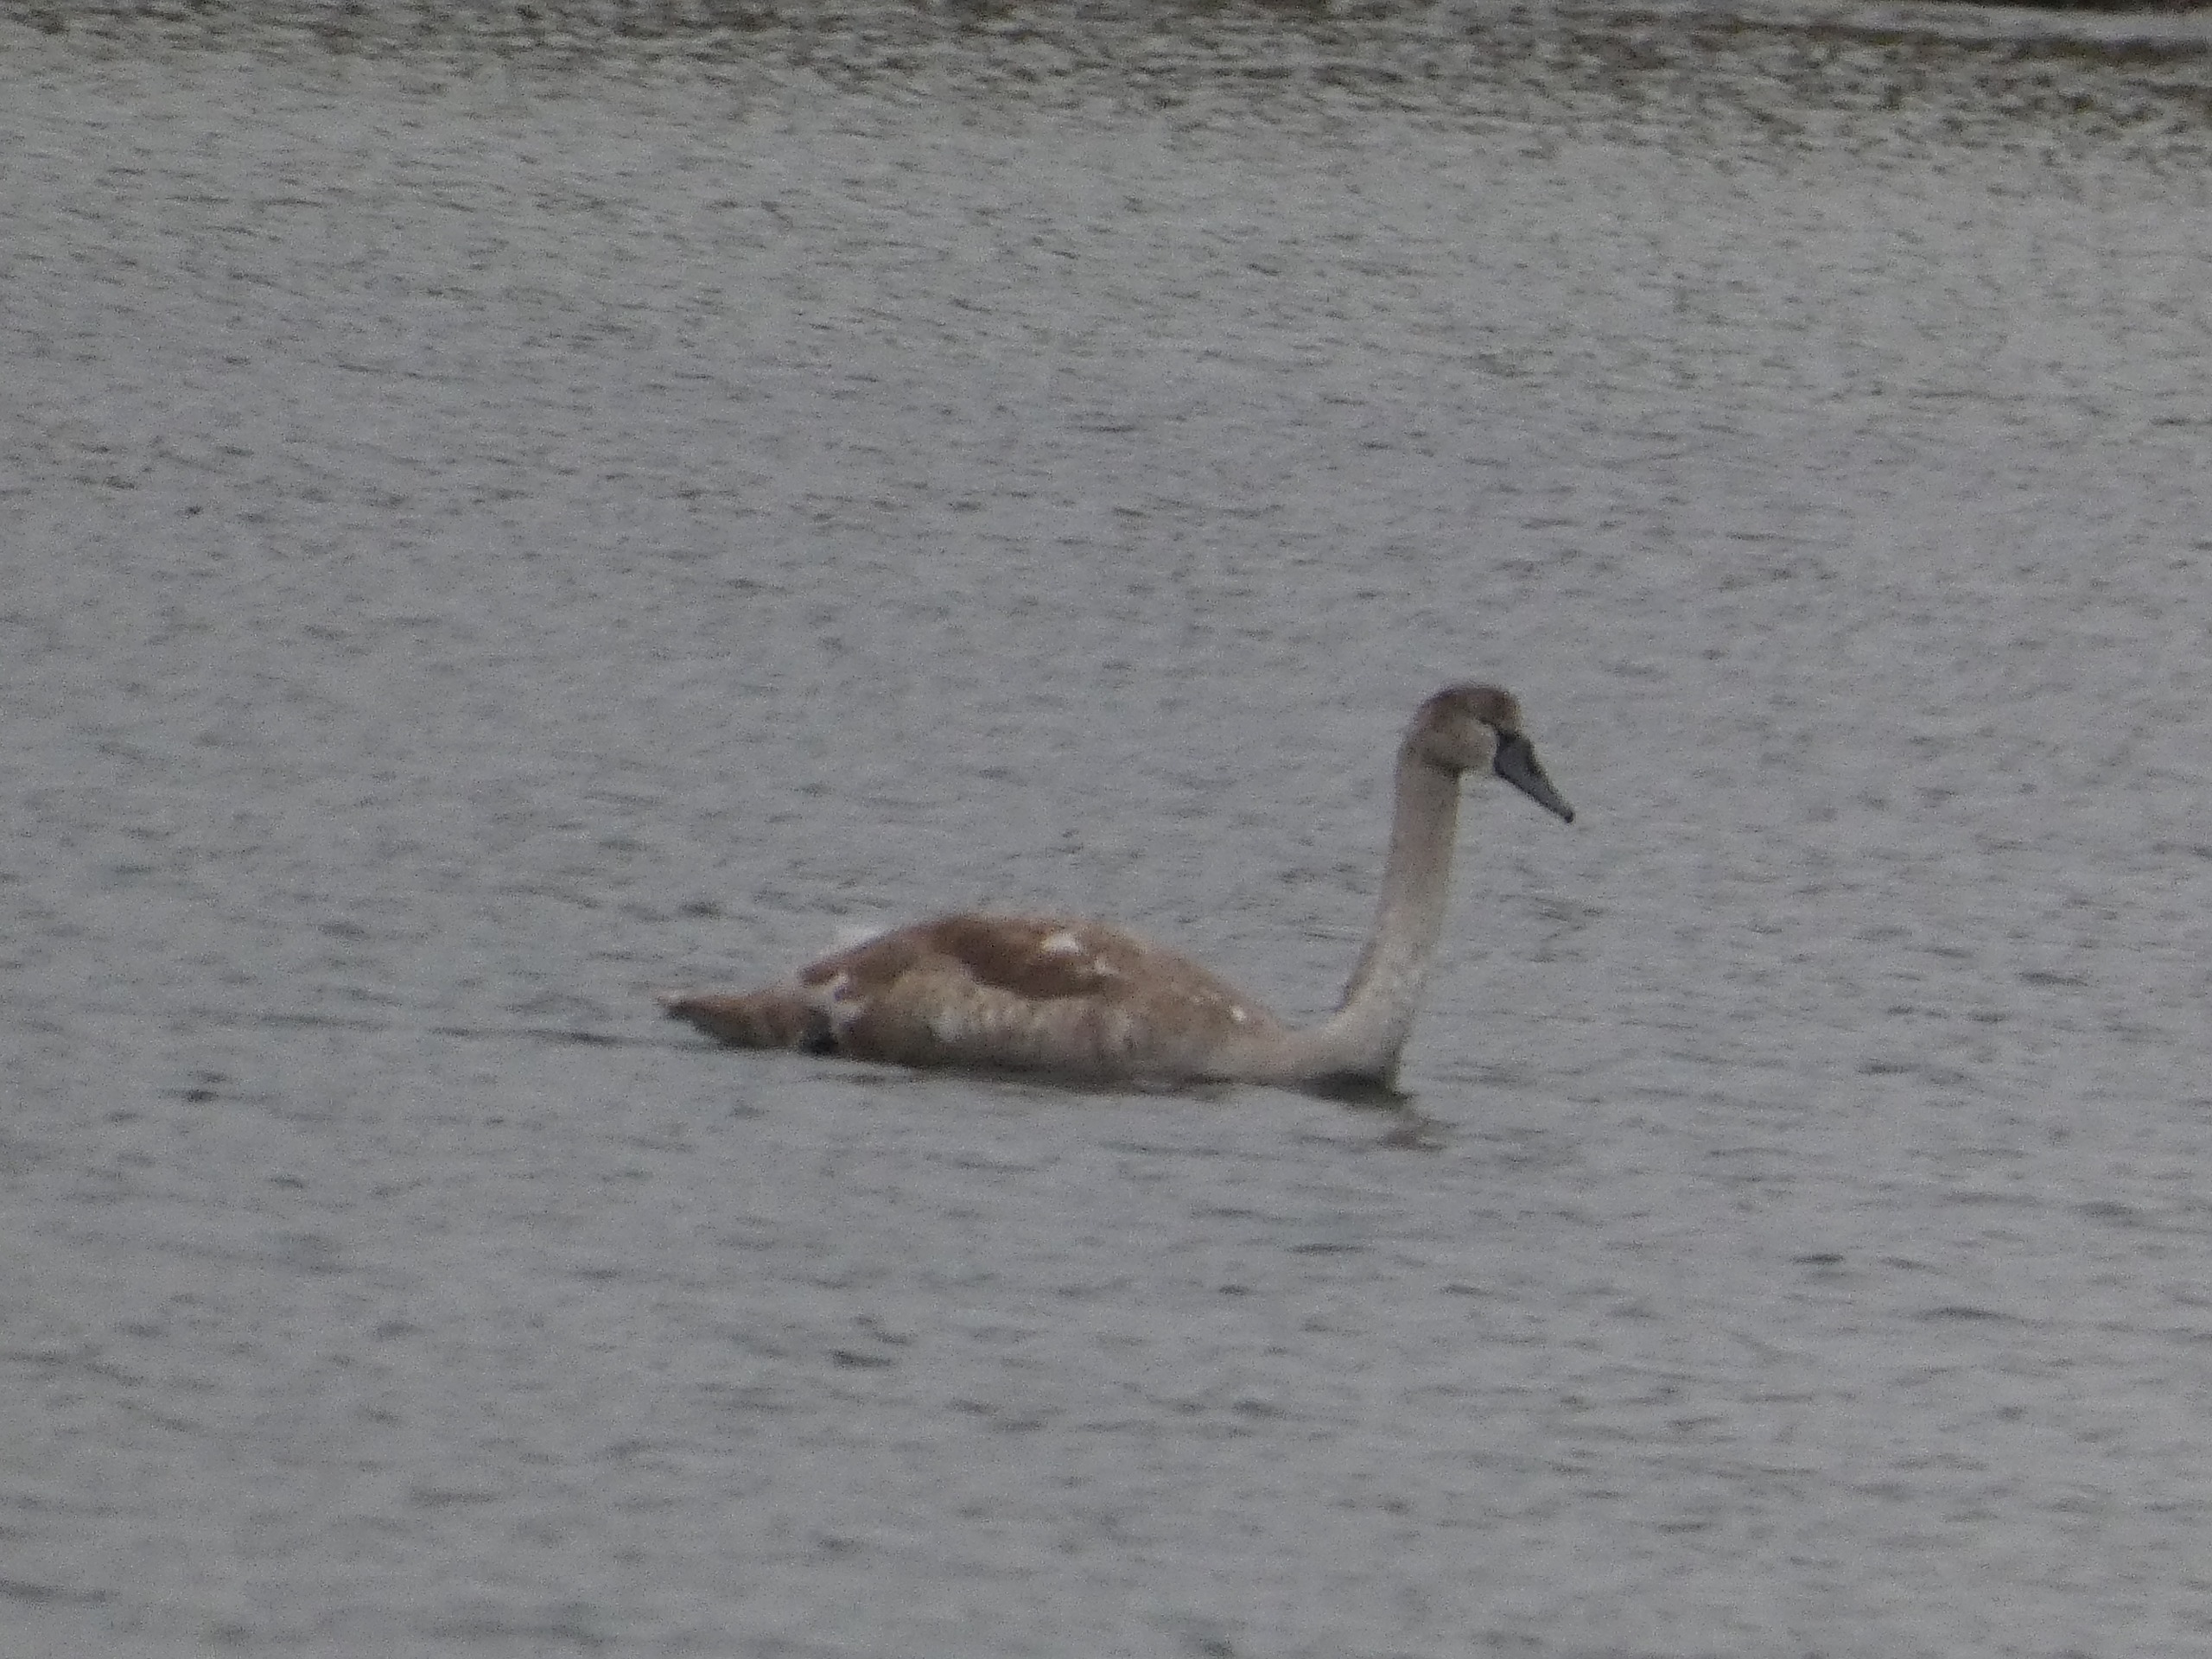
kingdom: Animalia
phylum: Chordata
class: Aves
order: Anseriformes
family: Anatidae
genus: Cygnus
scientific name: Cygnus olor
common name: Knopsvane
